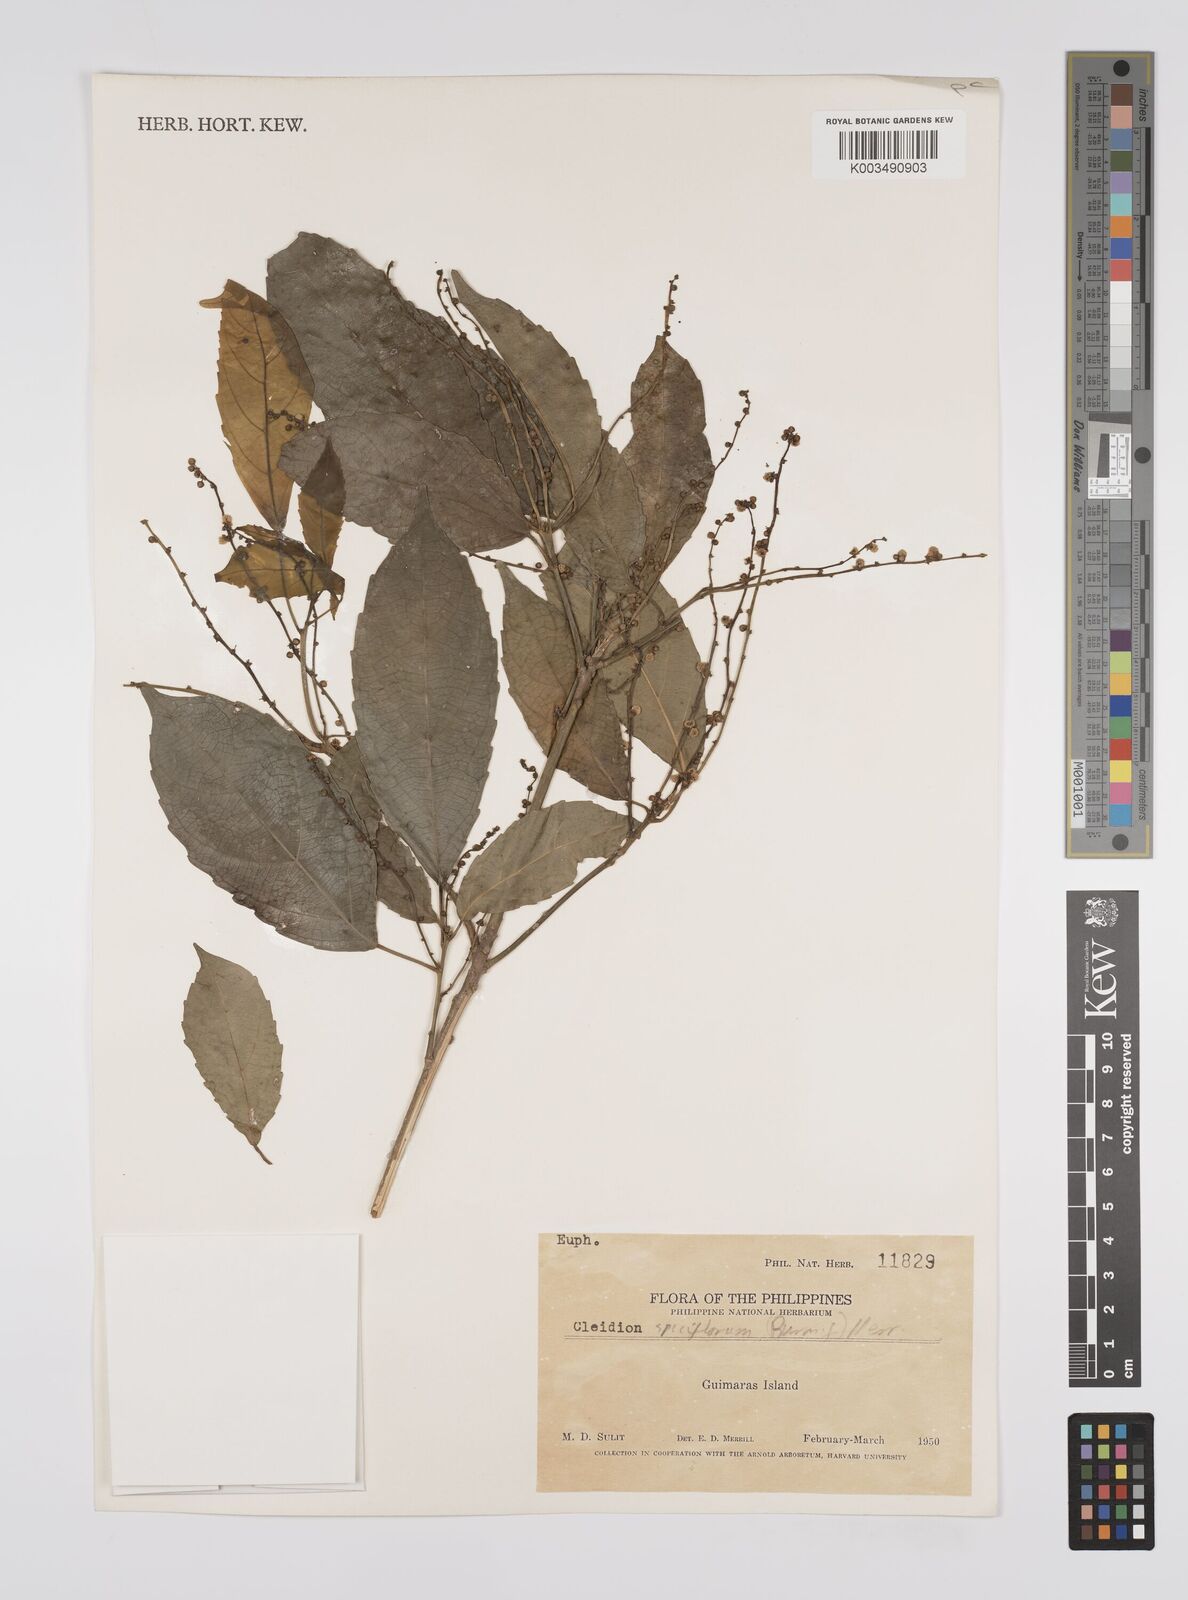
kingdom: Plantae
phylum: Tracheophyta
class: Magnoliopsida
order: Malpighiales
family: Euphorbiaceae
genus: Cleidion
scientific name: Cleidion javanicum
